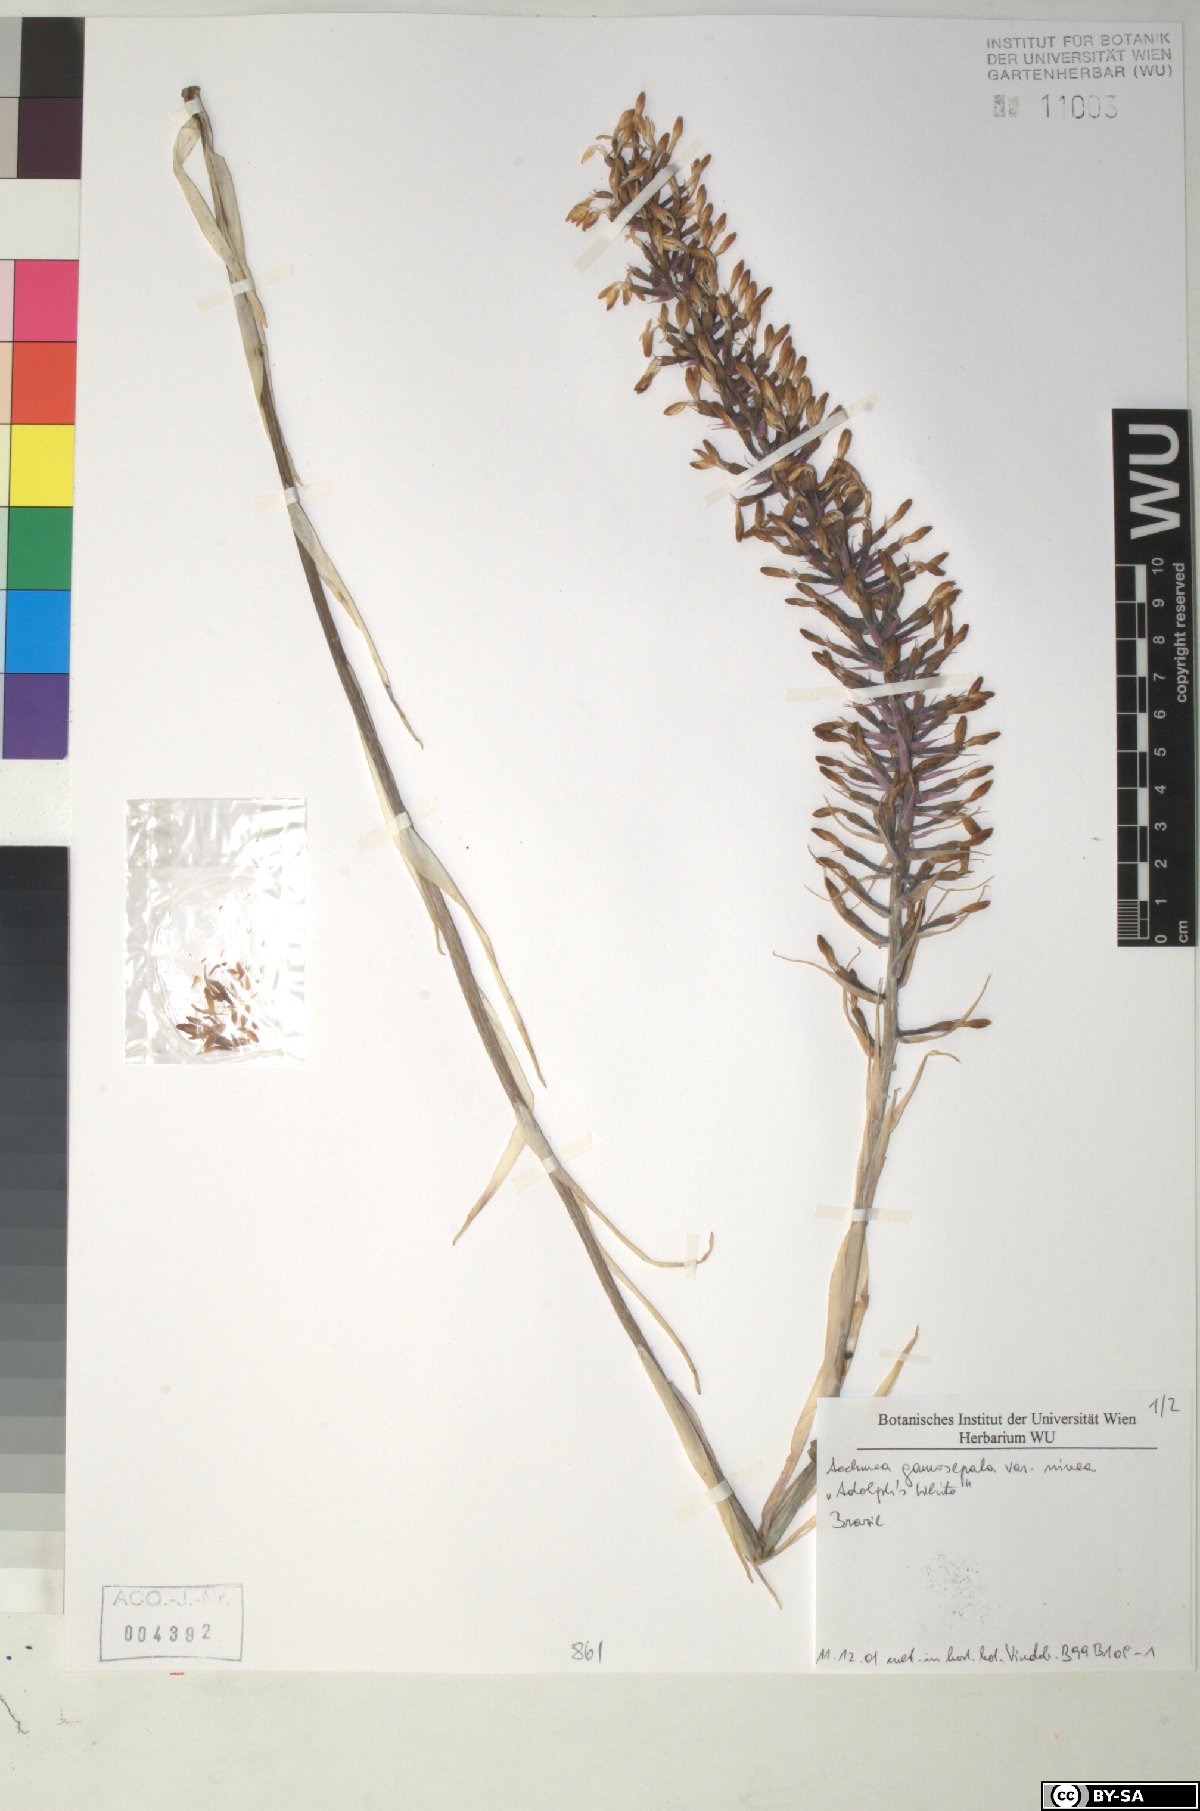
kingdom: Plantae
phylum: Tracheophyta
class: Liliopsida
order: Poales
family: Bromeliaceae
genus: Aechmea
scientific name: Aechmea gamosepala
